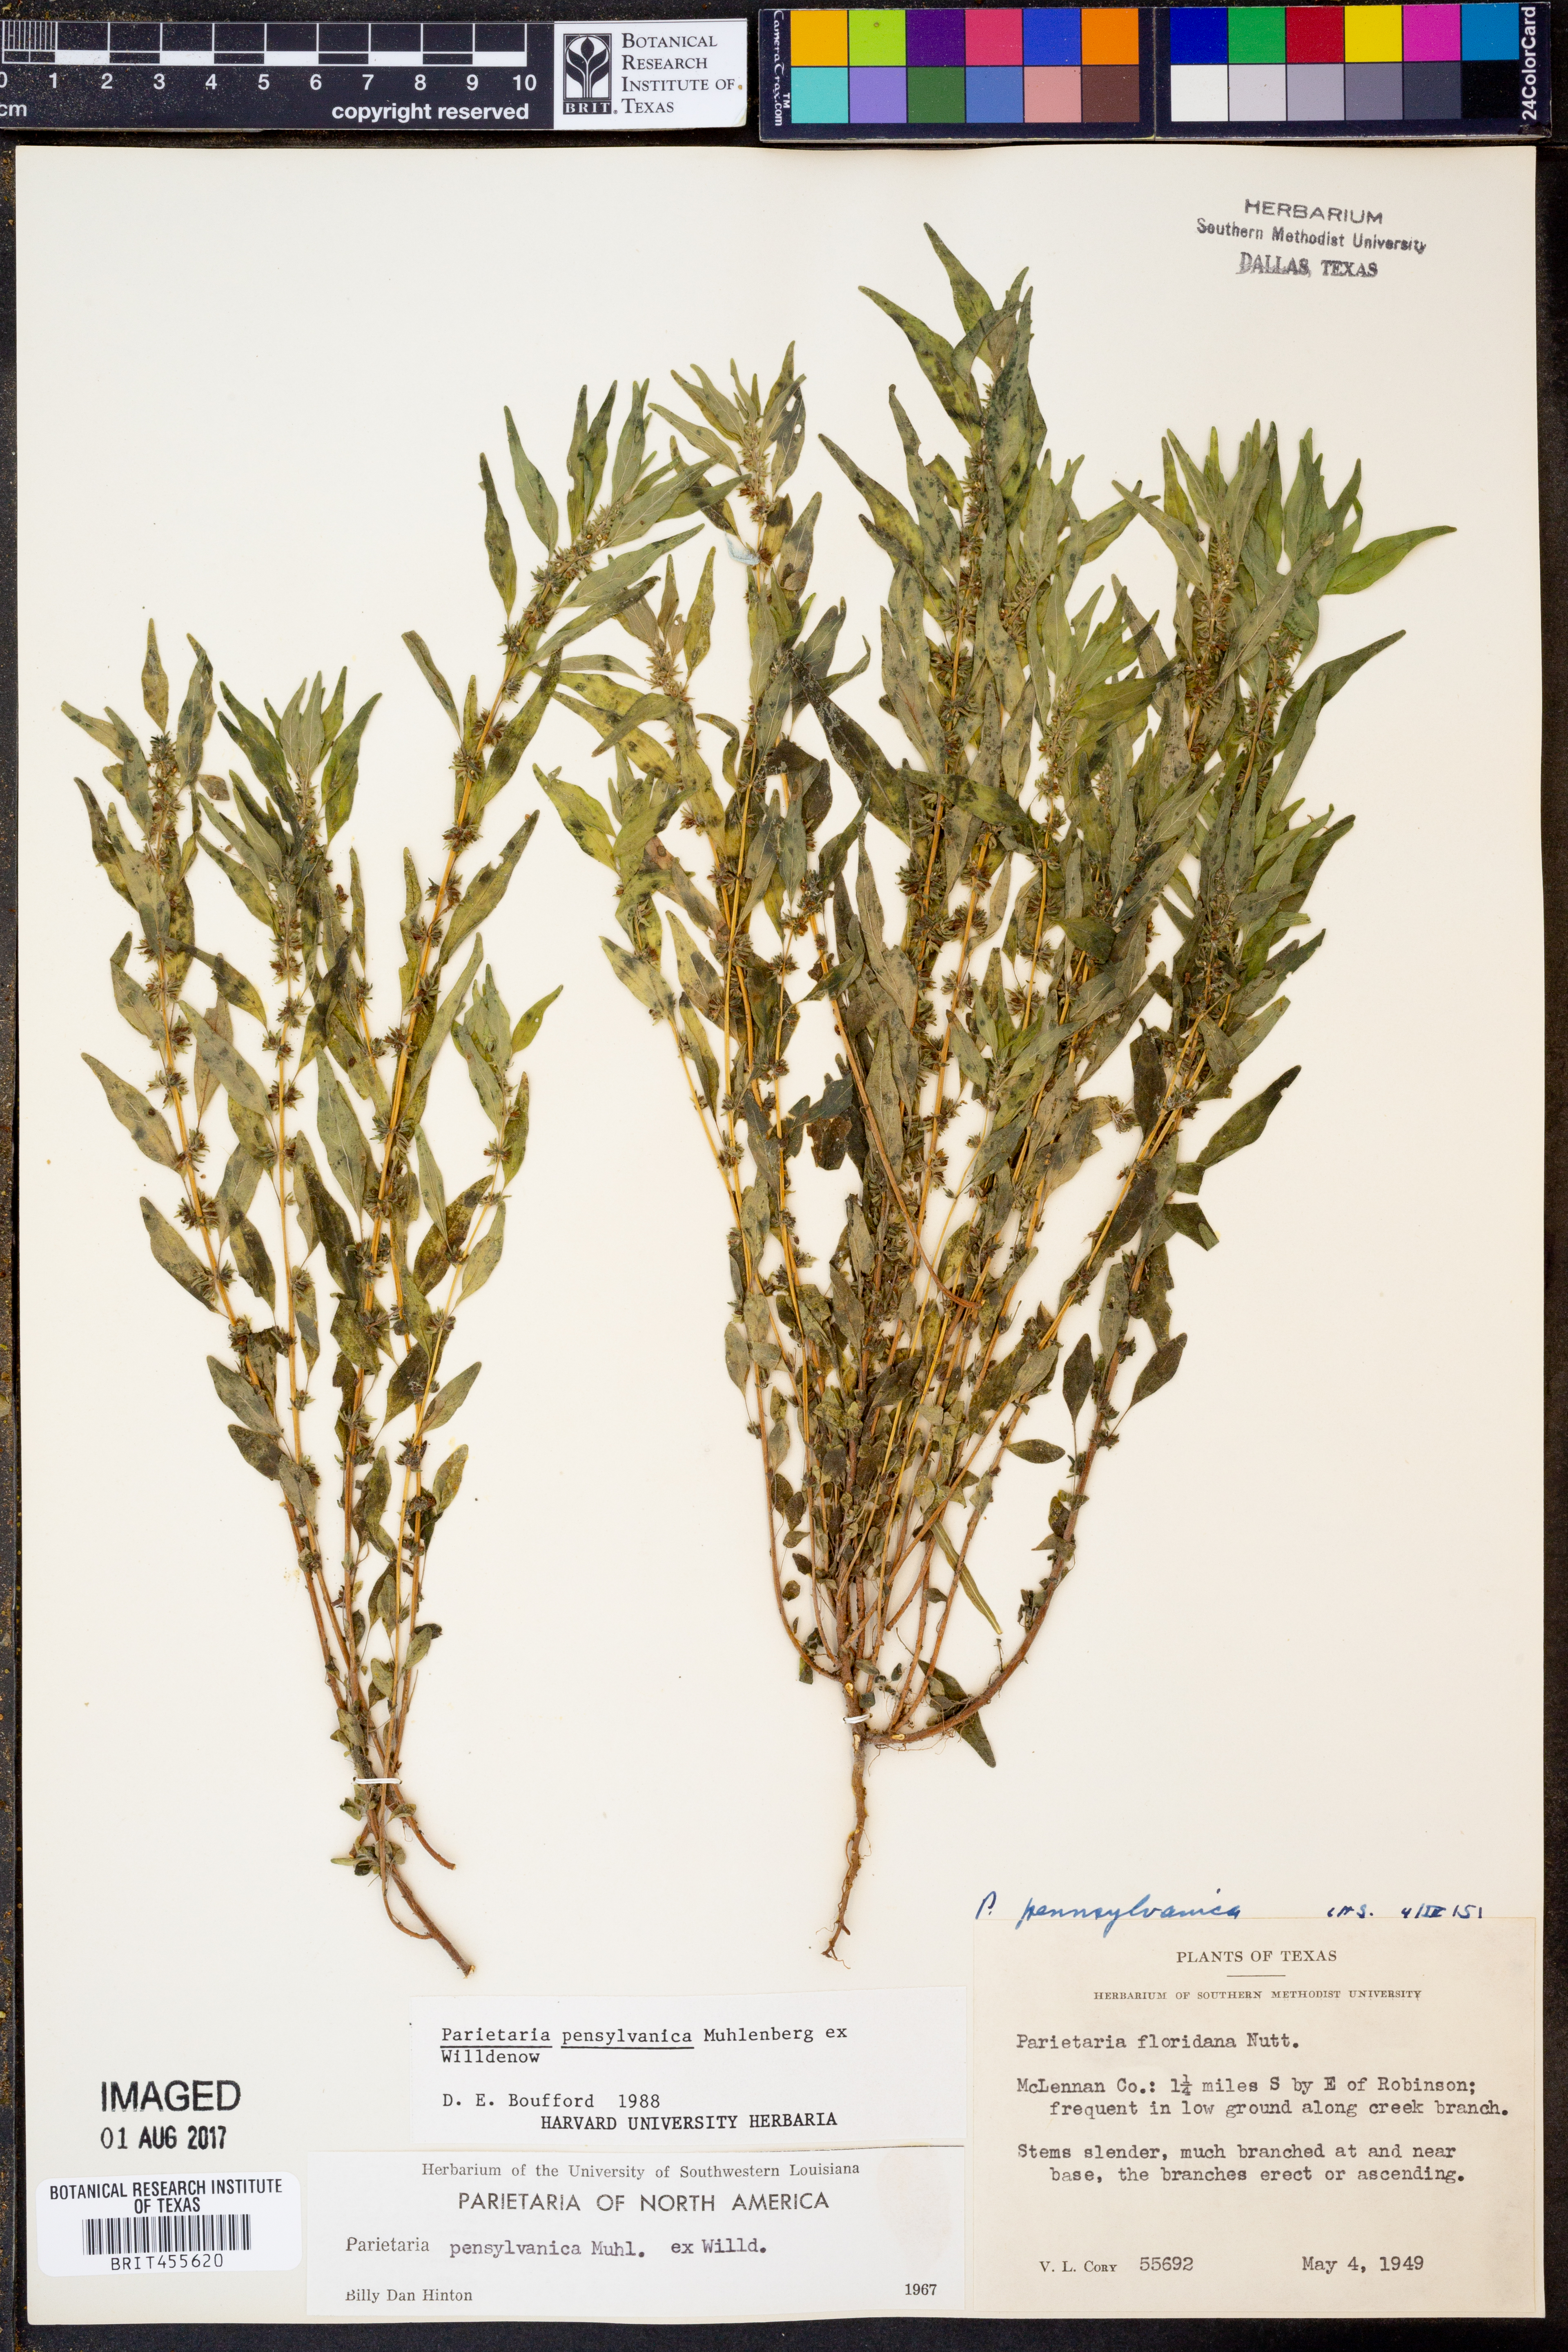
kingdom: Plantae
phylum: Tracheophyta
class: Magnoliopsida
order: Rosales
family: Urticaceae
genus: Parietaria
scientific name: Parietaria pensylvanica
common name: Pennsylvania pellitory
